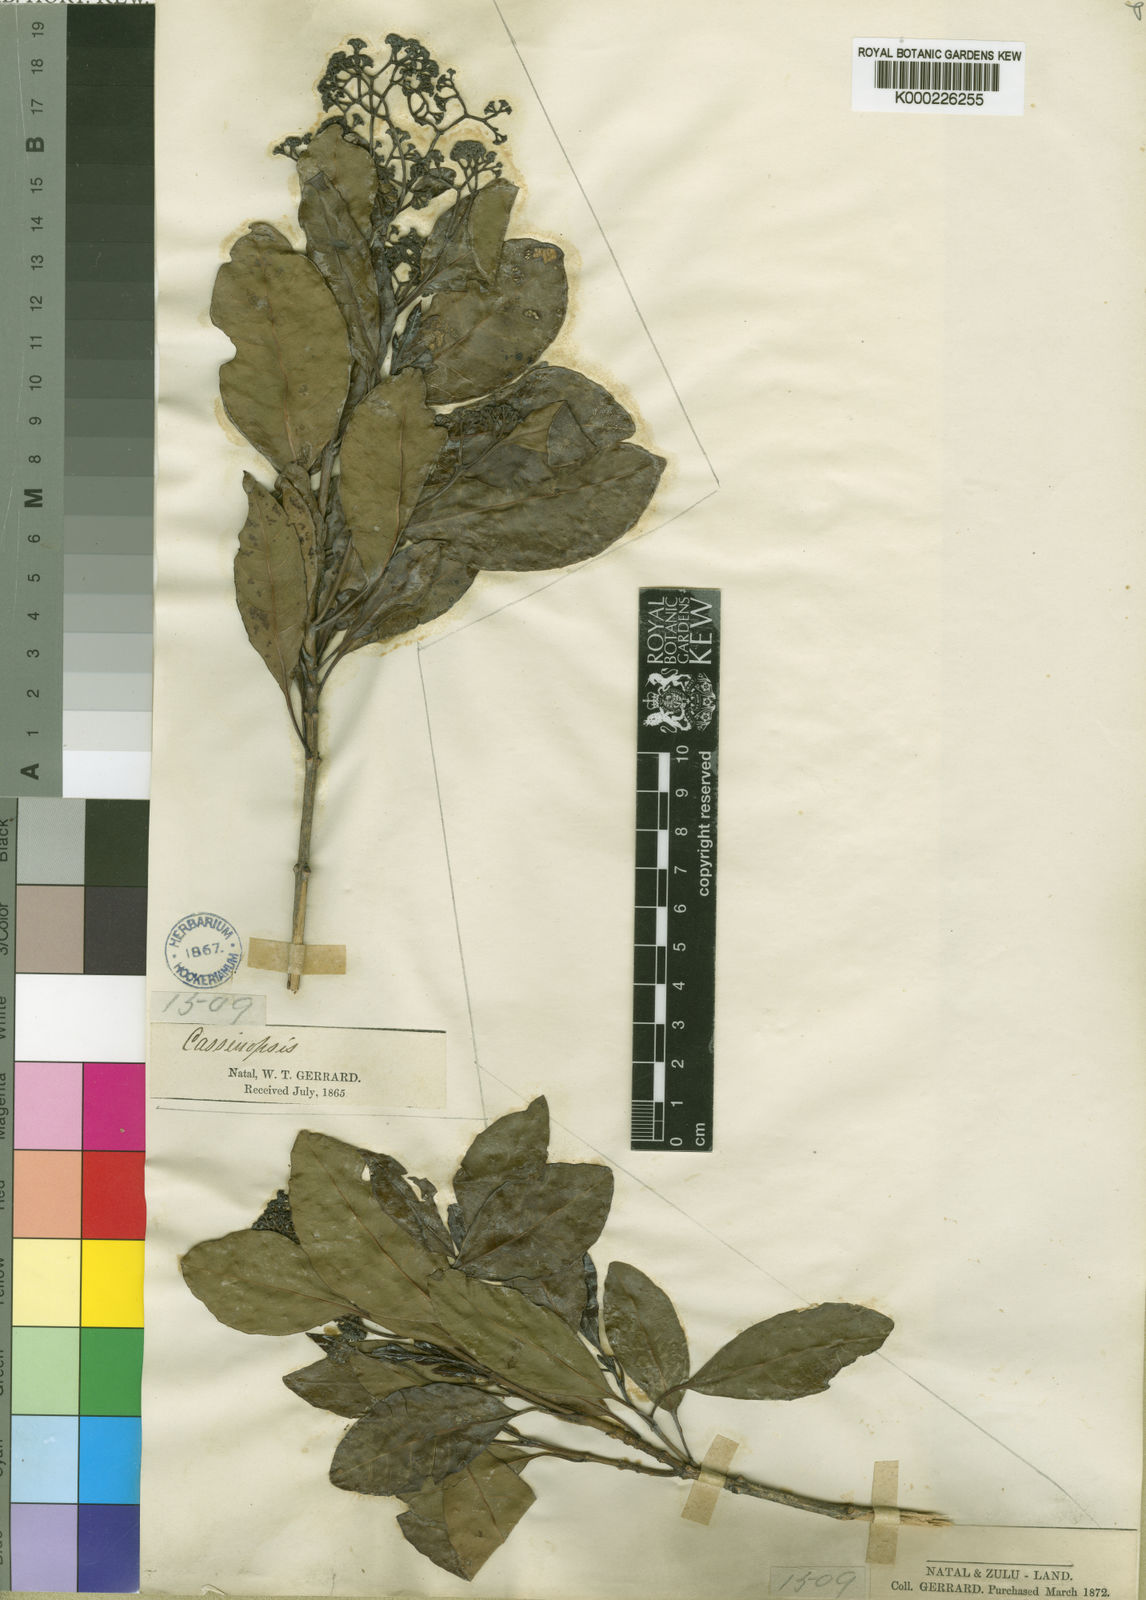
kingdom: Plantae
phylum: Tracheophyta
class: Magnoliopsida
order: Icacinales
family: Icacinaceae
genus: Cassinopsis
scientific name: Cassinopsis tinifolia
